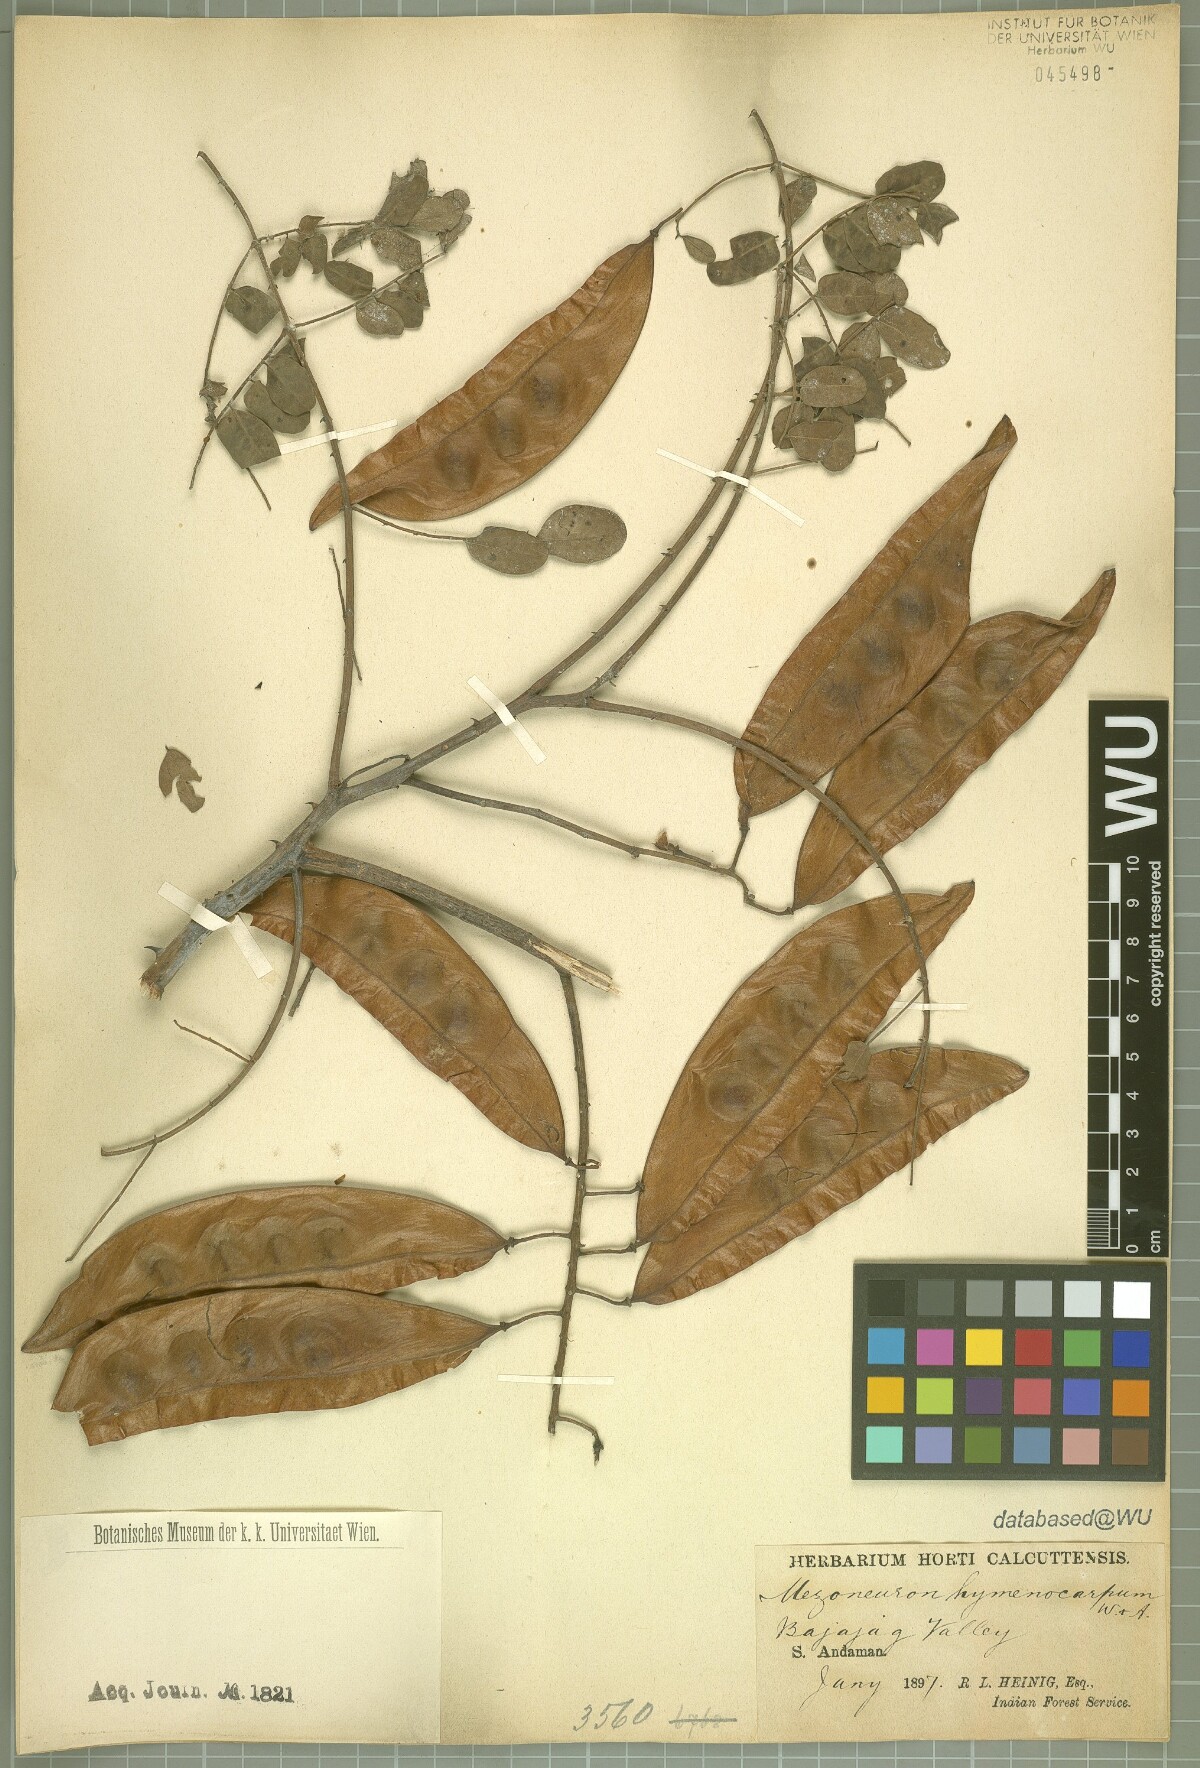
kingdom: Plantae
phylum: Tracheophyta
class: Magnoliopsida
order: Fabales
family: Fabaceae
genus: Erythrostemon
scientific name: Erythrostemon laxus
